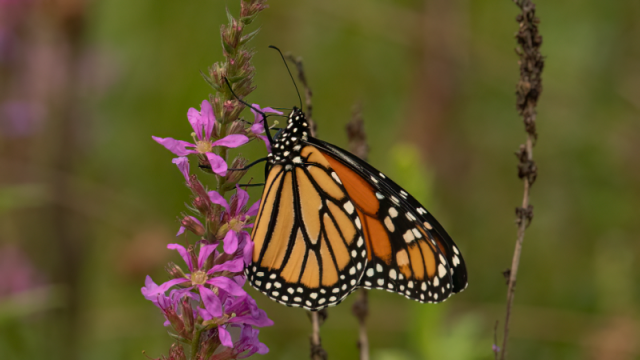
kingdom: Animalia
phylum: Arthropoda
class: Insecta
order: Lepidoptera
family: Nymphalidae
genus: Danaus
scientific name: Danaus plexippus
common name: Monarch
